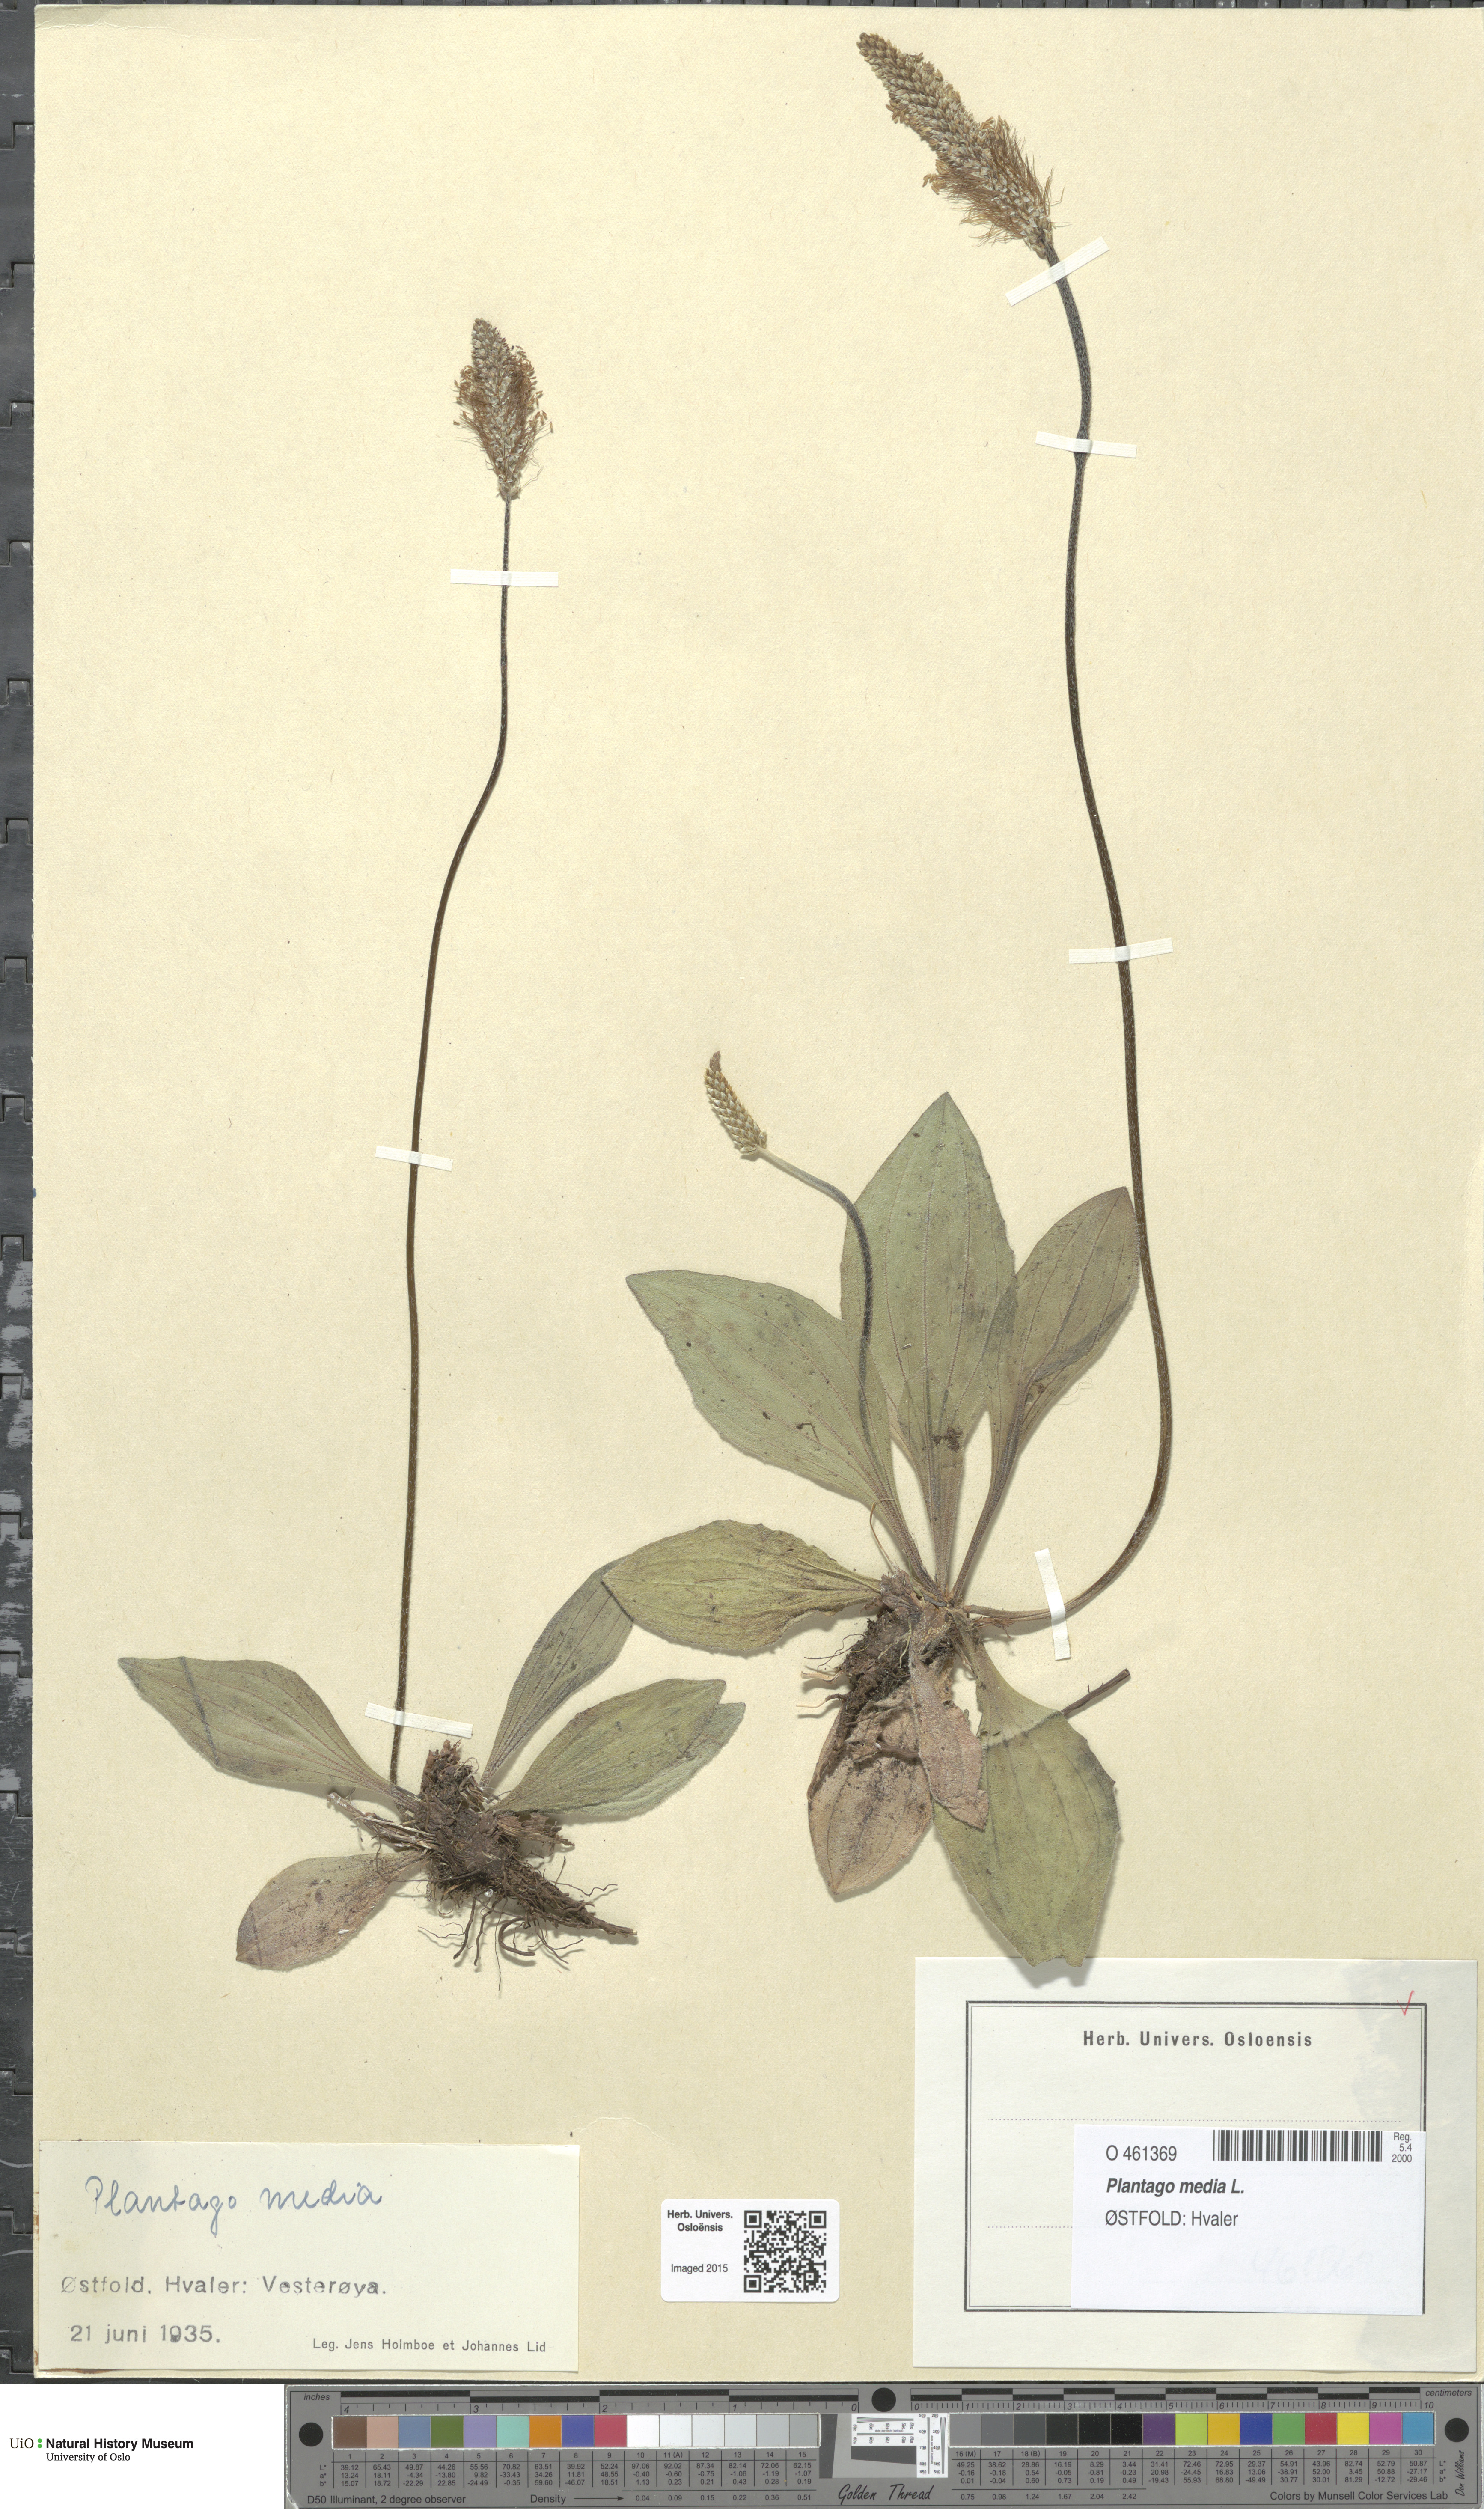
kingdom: Plantae
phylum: Tracheophyta
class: Magnoliopsida
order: Lamiales
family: Plantaginaceae
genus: Plantago
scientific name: Plantago media
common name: Hoary plantain
